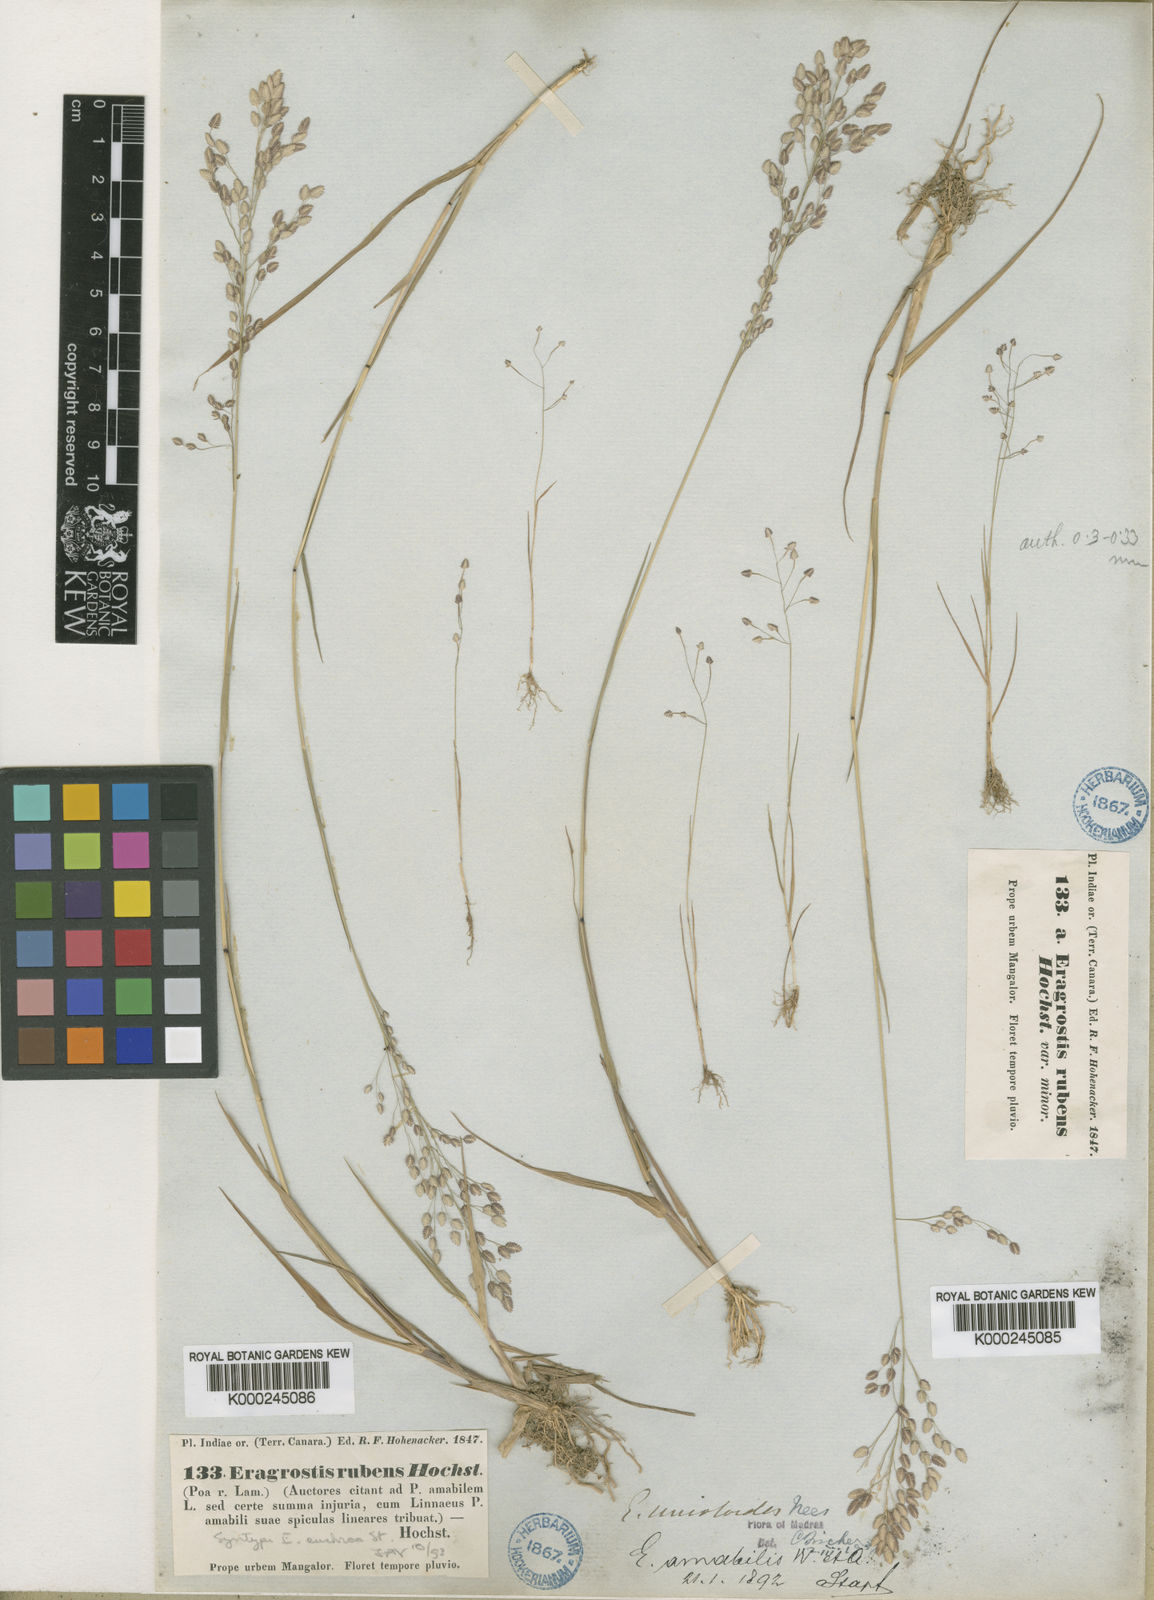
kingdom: Plantae
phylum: Tracheophyta
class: Liliopsida
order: Poales
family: Poaceae
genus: Eragrostis
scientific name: Eragrostis unioloides
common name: Chinese lovegrass
